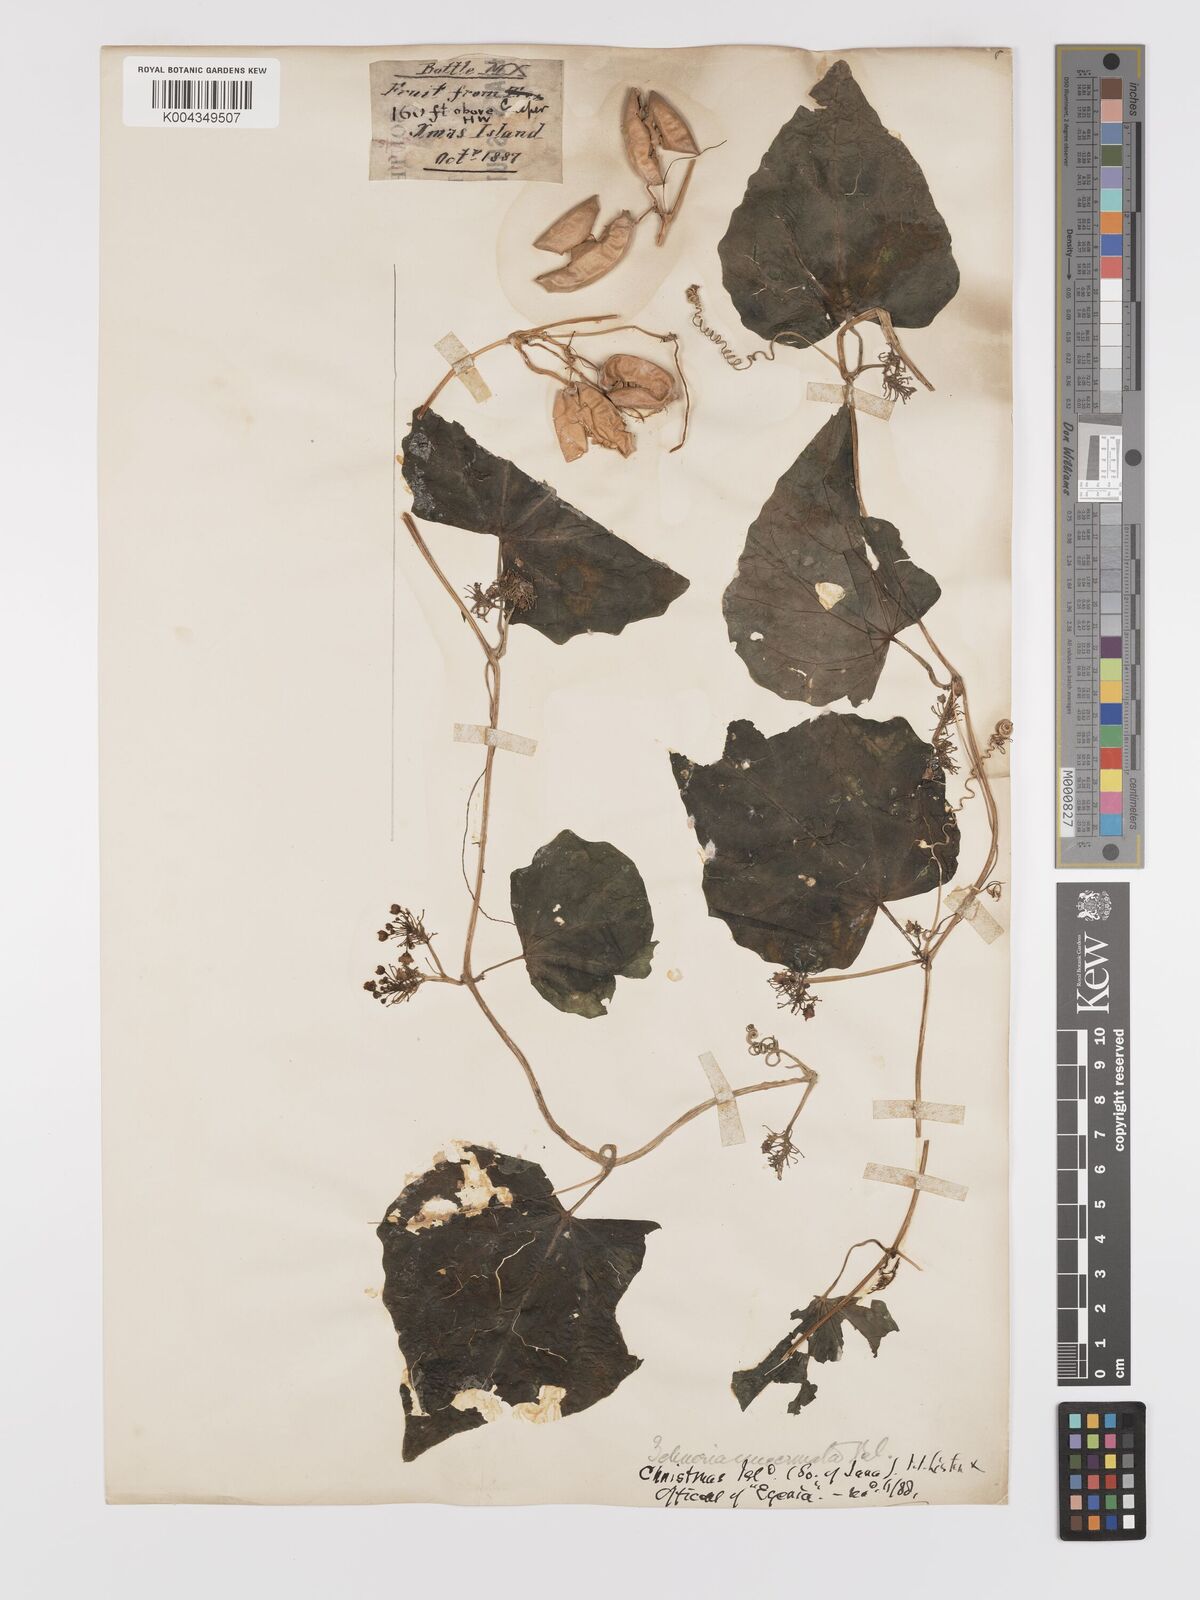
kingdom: Plantae
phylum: Tracheophyta
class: Magnoliopsida
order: Cucurbitales
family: Cucurbitaceae
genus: Zehneria
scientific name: Zehneria mucronata
